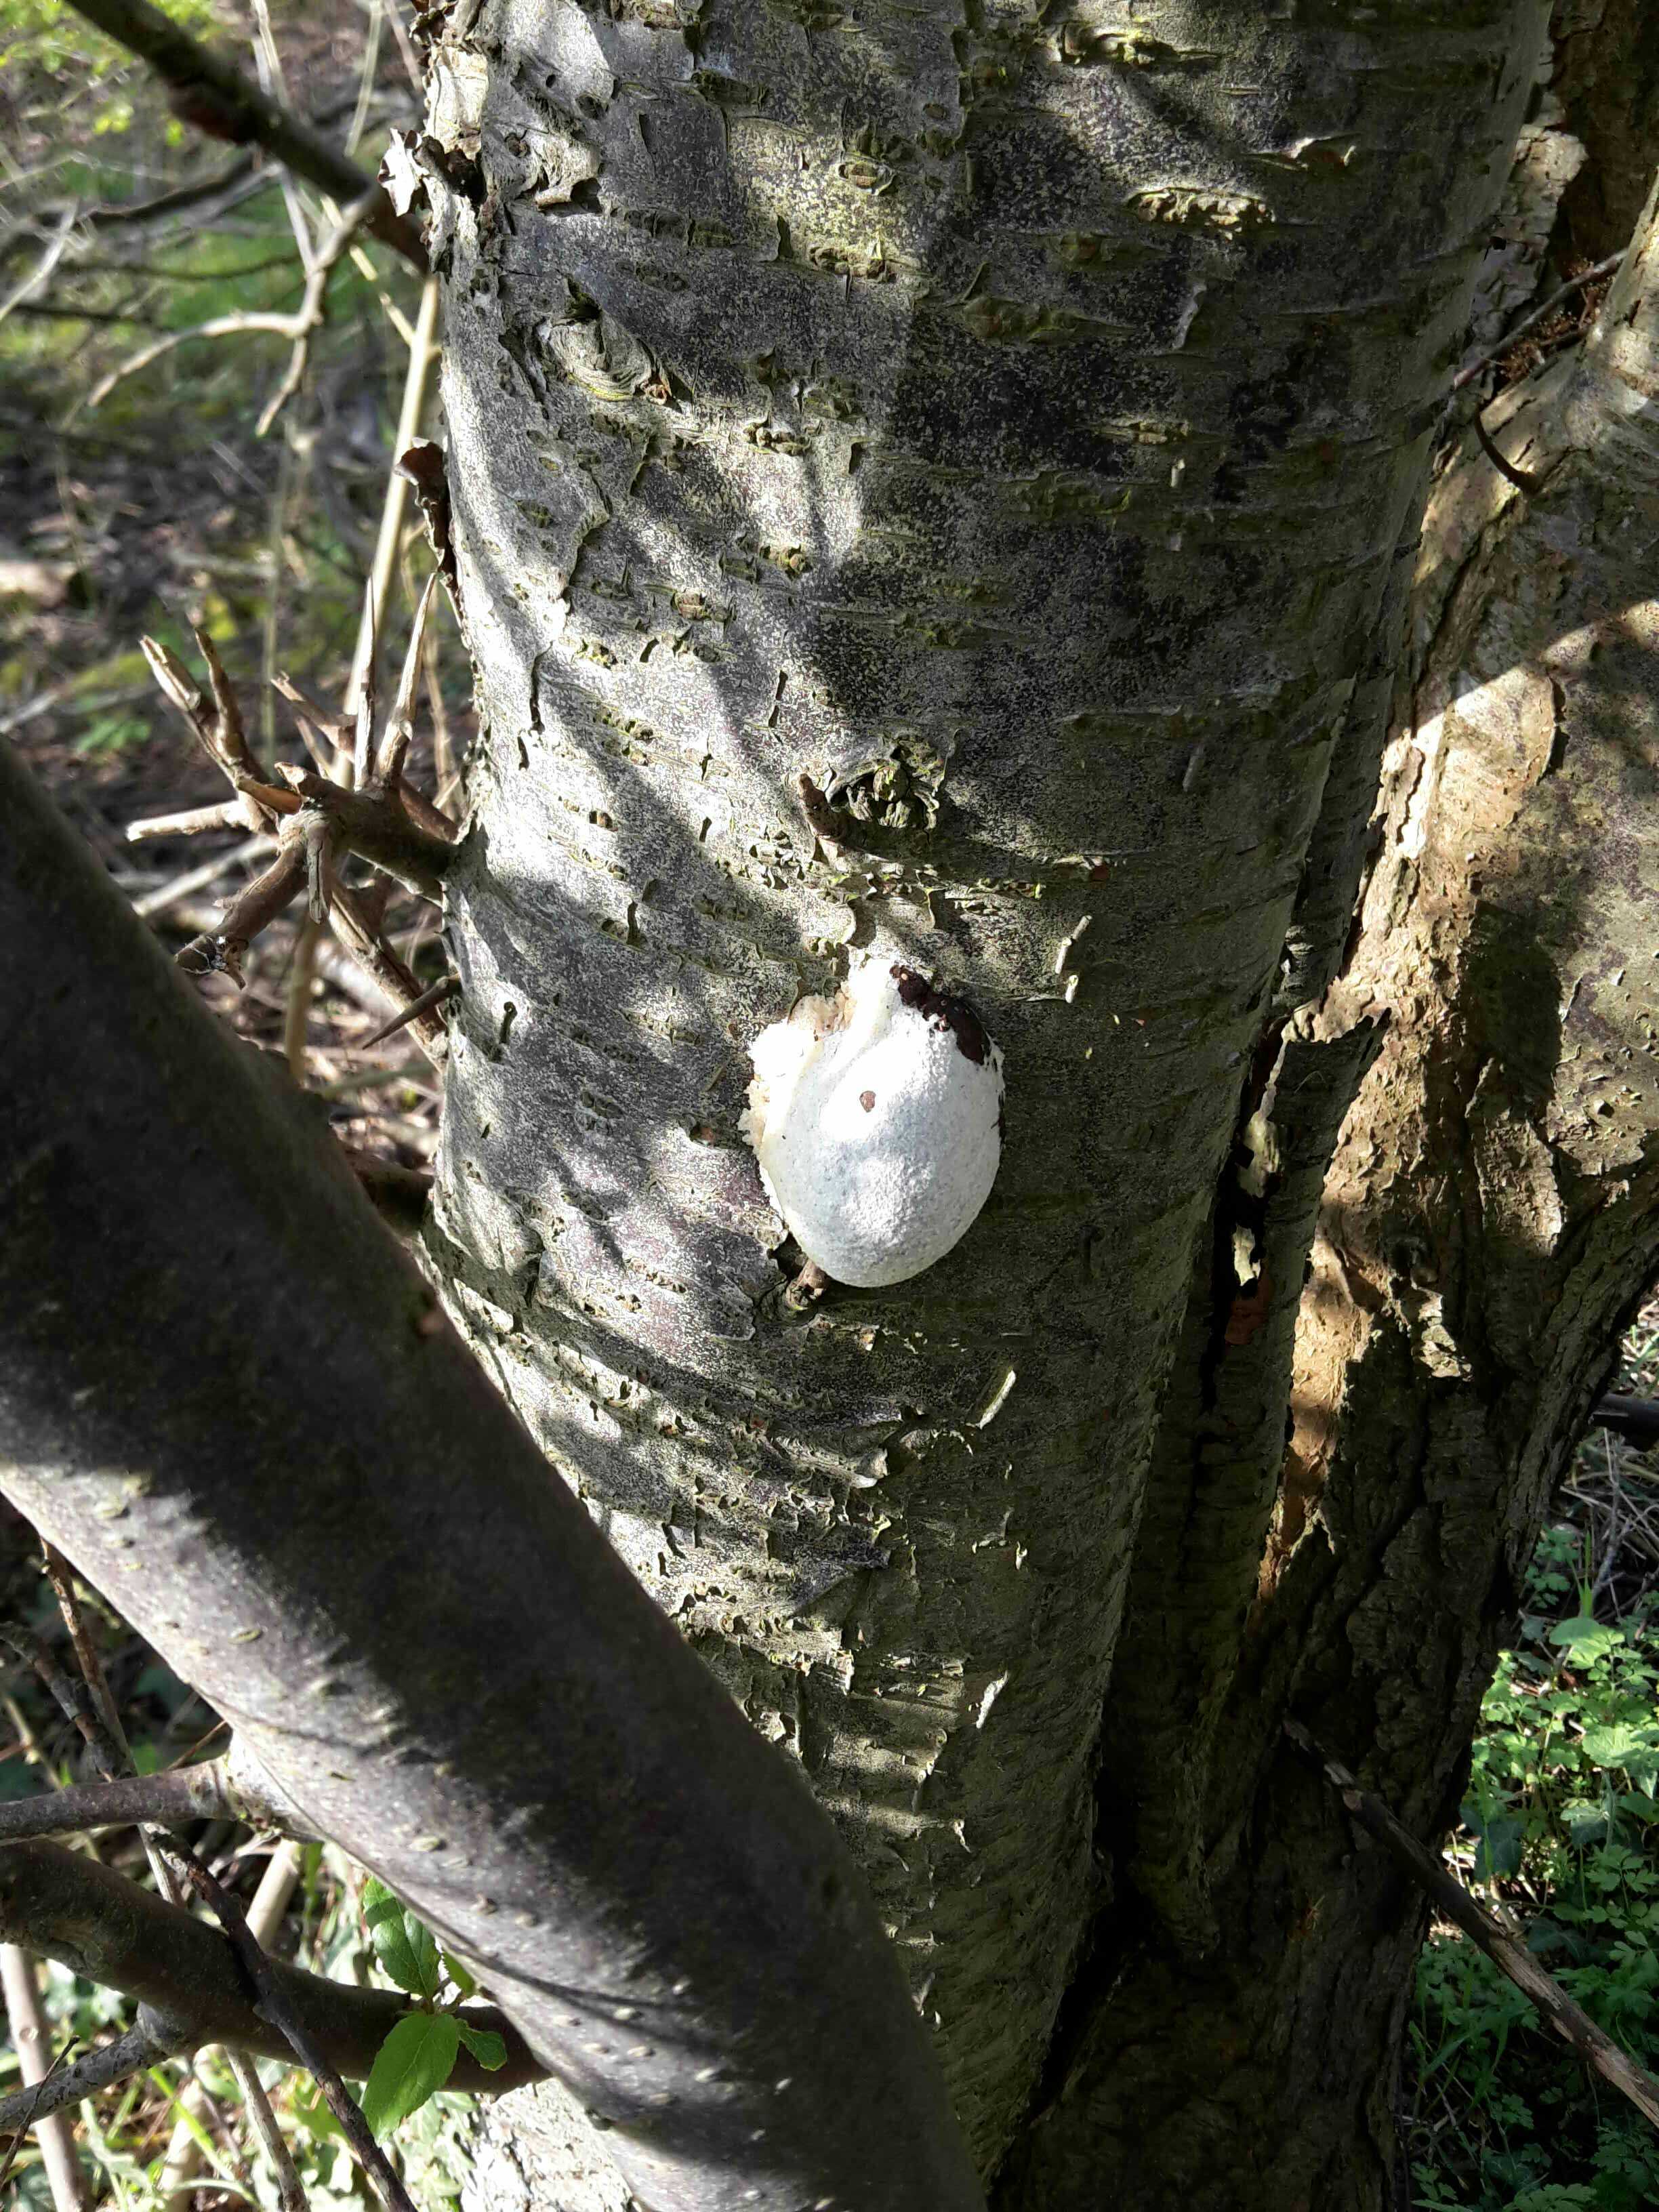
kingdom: Protozoa
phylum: Mycetozoa
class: Myxomycetes
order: Cribrariales
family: Tubiferaceae
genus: Reticularia
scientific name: Reticularia lycoperdon
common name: skinnende støvpude
